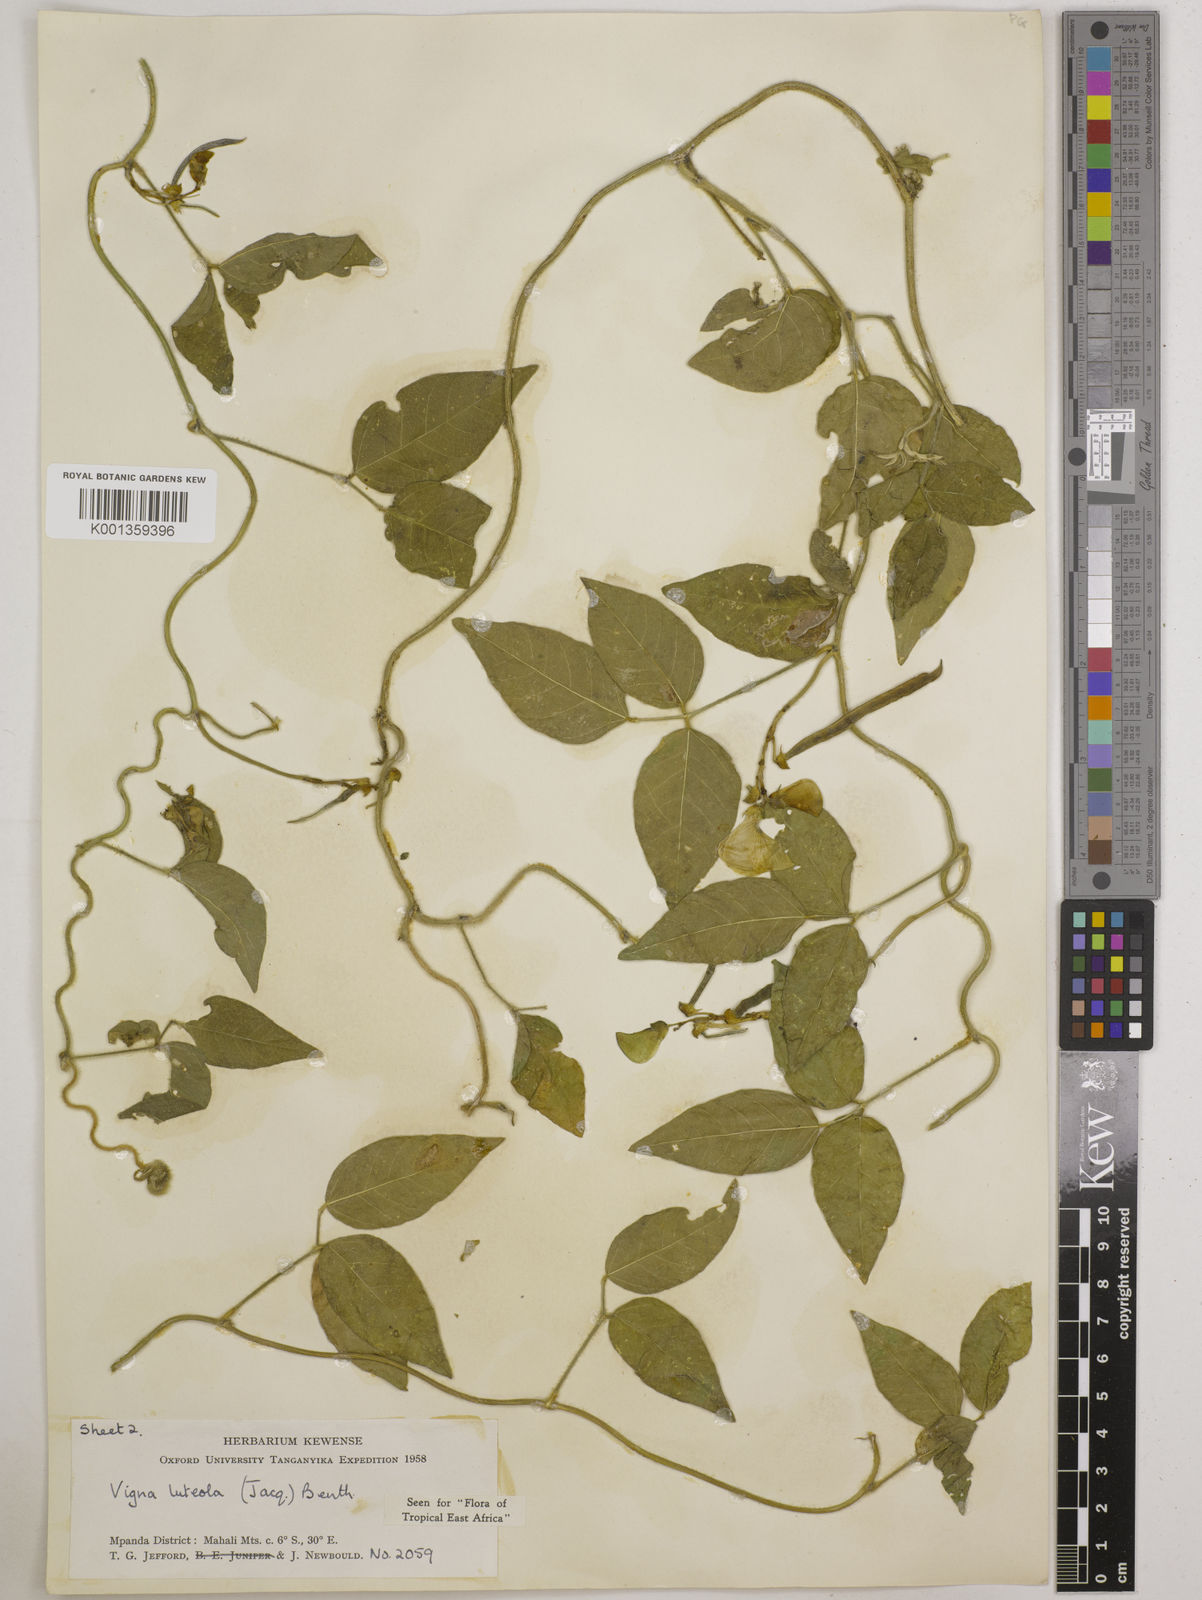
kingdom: Plantae
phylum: Tracheophyta
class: Magnoliopsida
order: Fabales
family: Fabaceae
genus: Vigna
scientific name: Vigna luteola
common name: Hairypod cowpea
